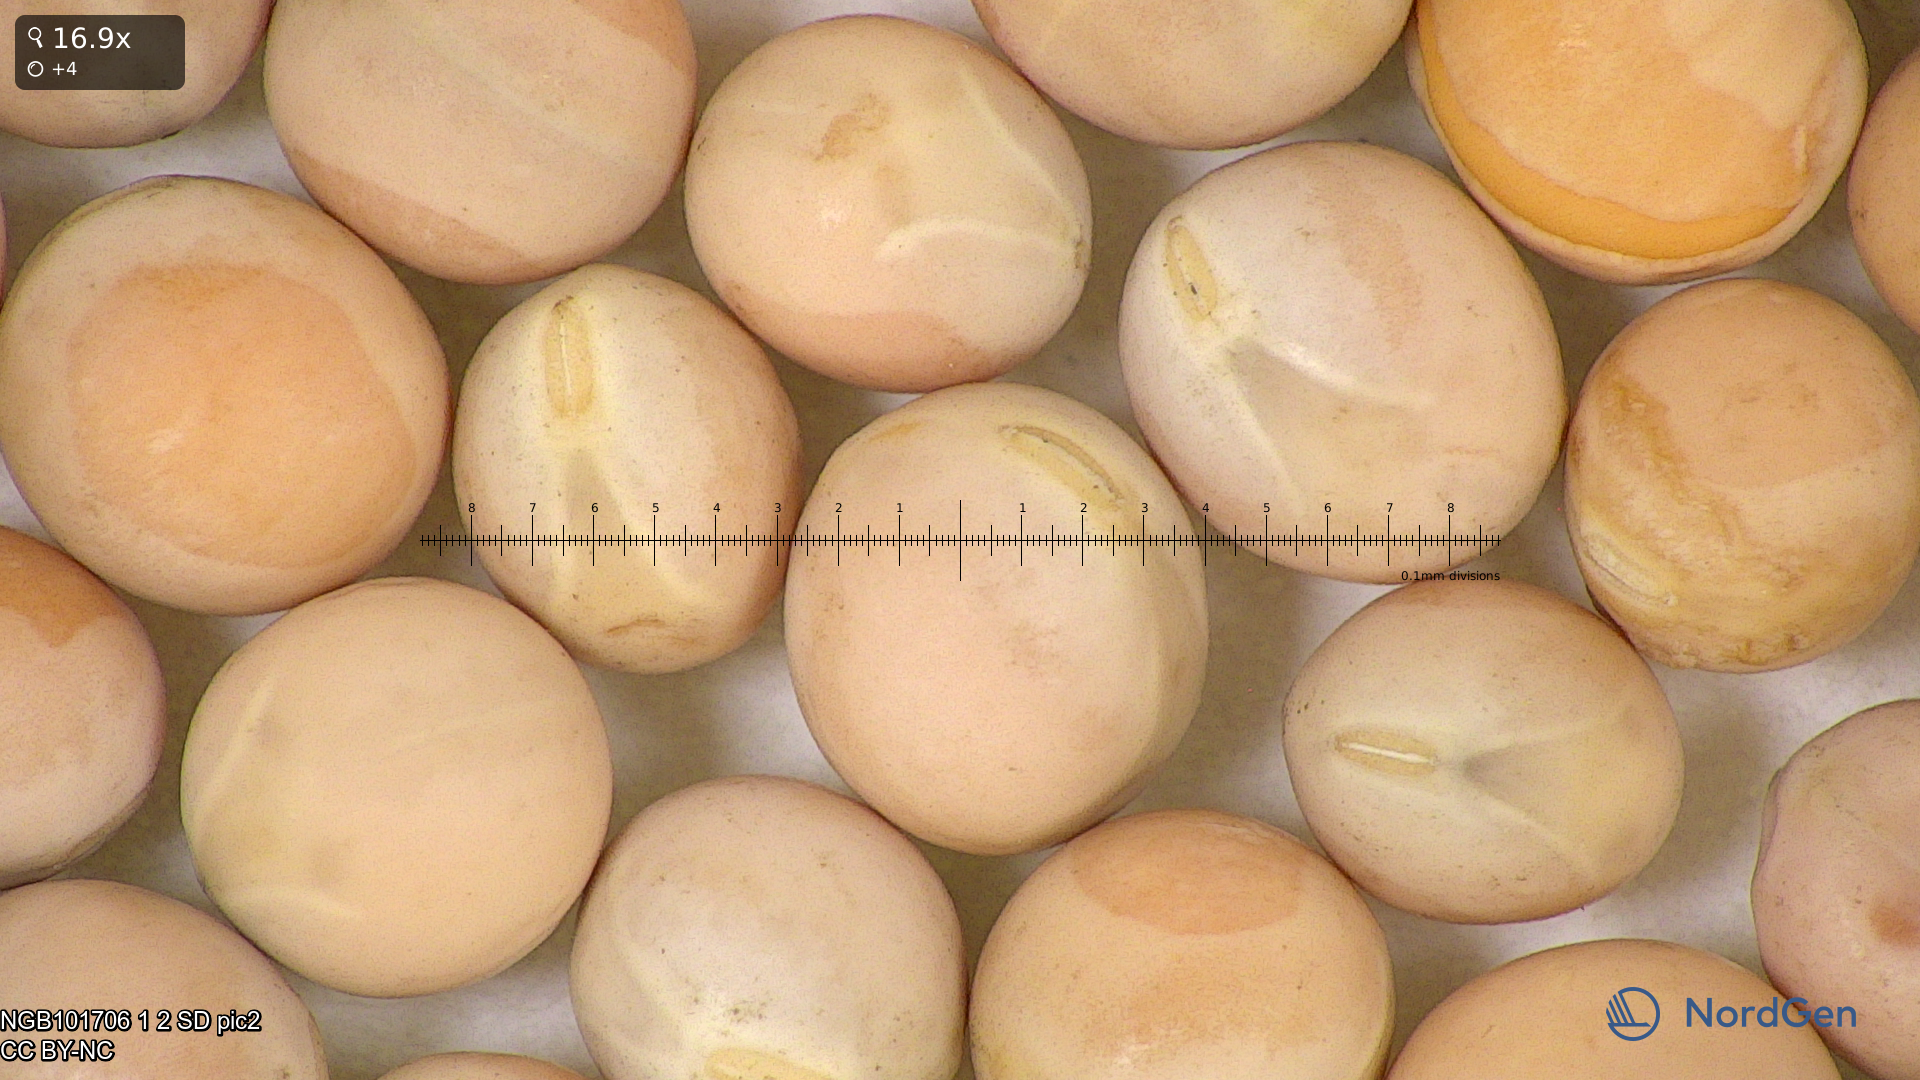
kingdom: Plantae
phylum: Tracheophyta
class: Magnoliopsida
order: Fabales
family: Fabaceae
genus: Lathyrus
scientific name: Lathyrus oleraceus
